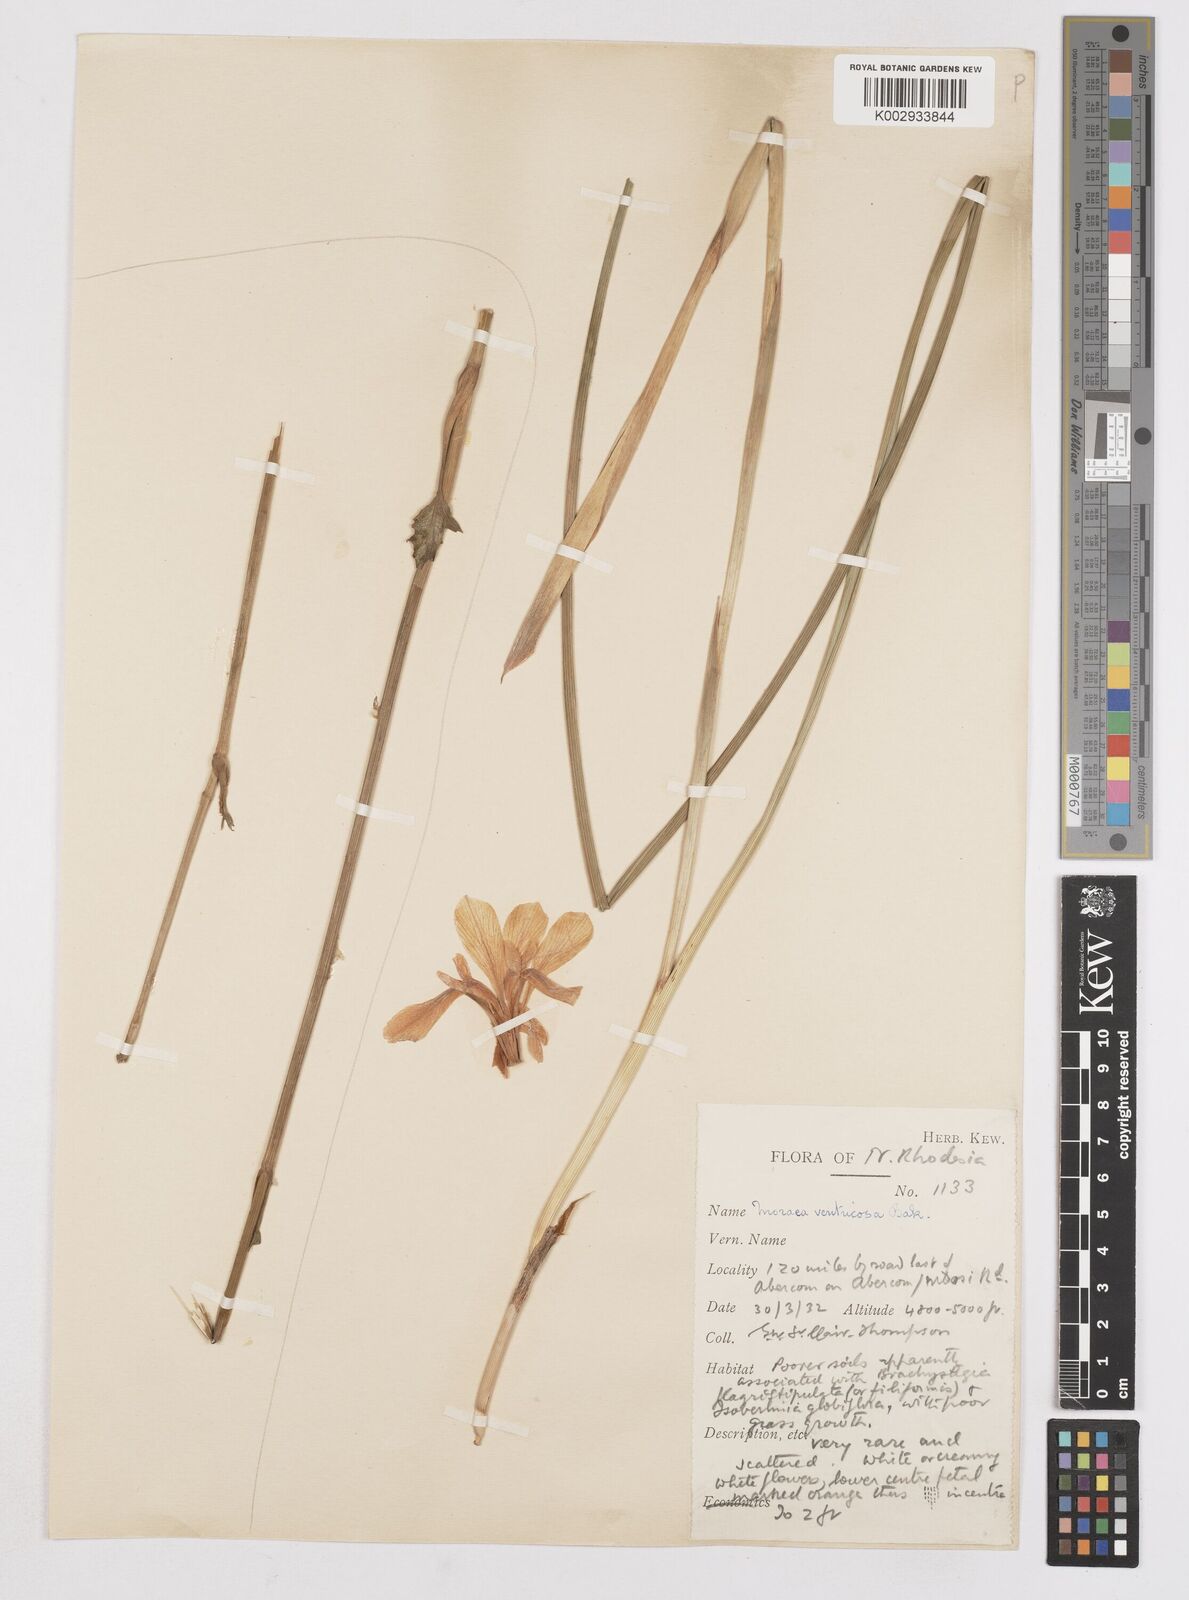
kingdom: Plantae
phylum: Tracheophyta
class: Liliopsida
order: Asparagales
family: Iridaceae
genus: Moraea
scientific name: Moraea ventricosa
